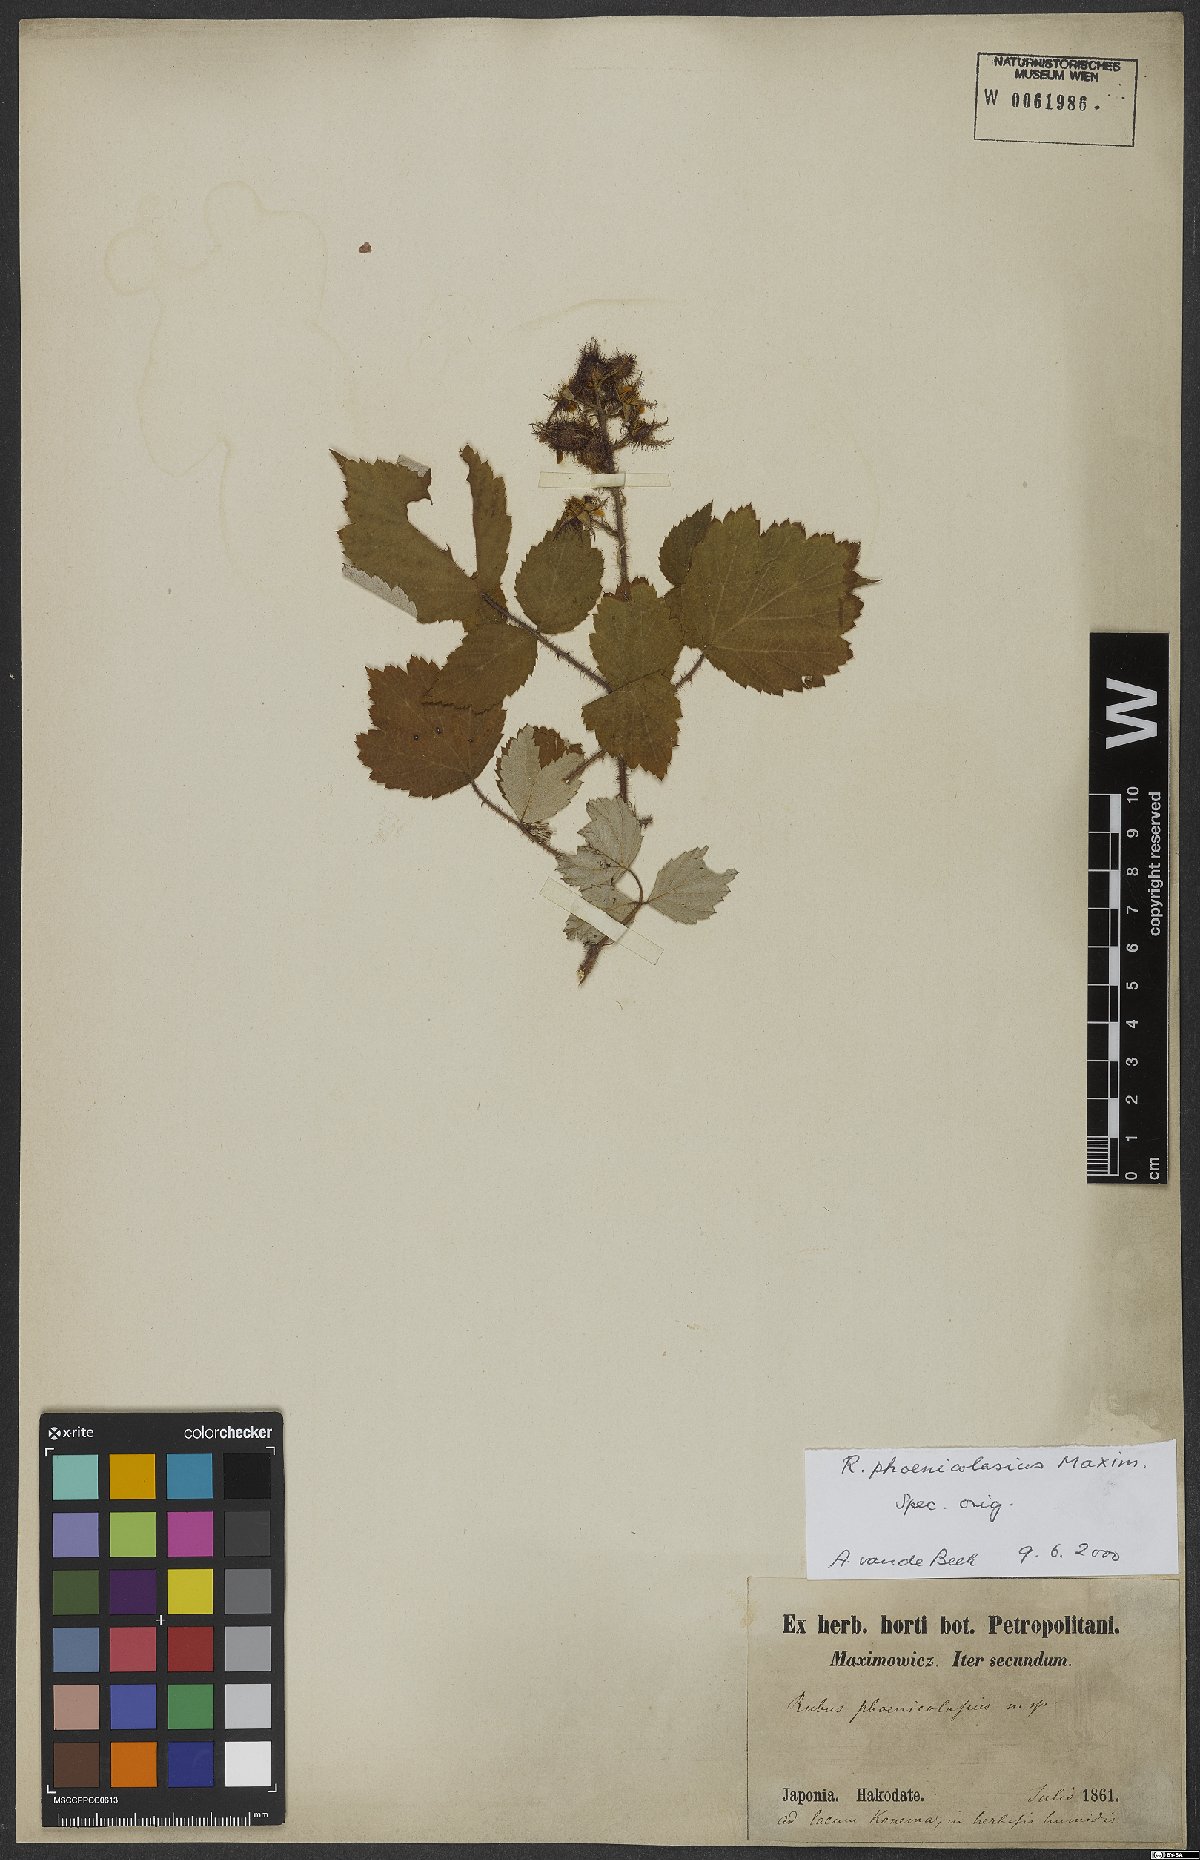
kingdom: Plantae
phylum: Tracheophyta
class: Magnoliopsida
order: Rosales
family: Rosaceae
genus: Rubus
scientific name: Rubus phoenicolasius
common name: Japanese wineberry
